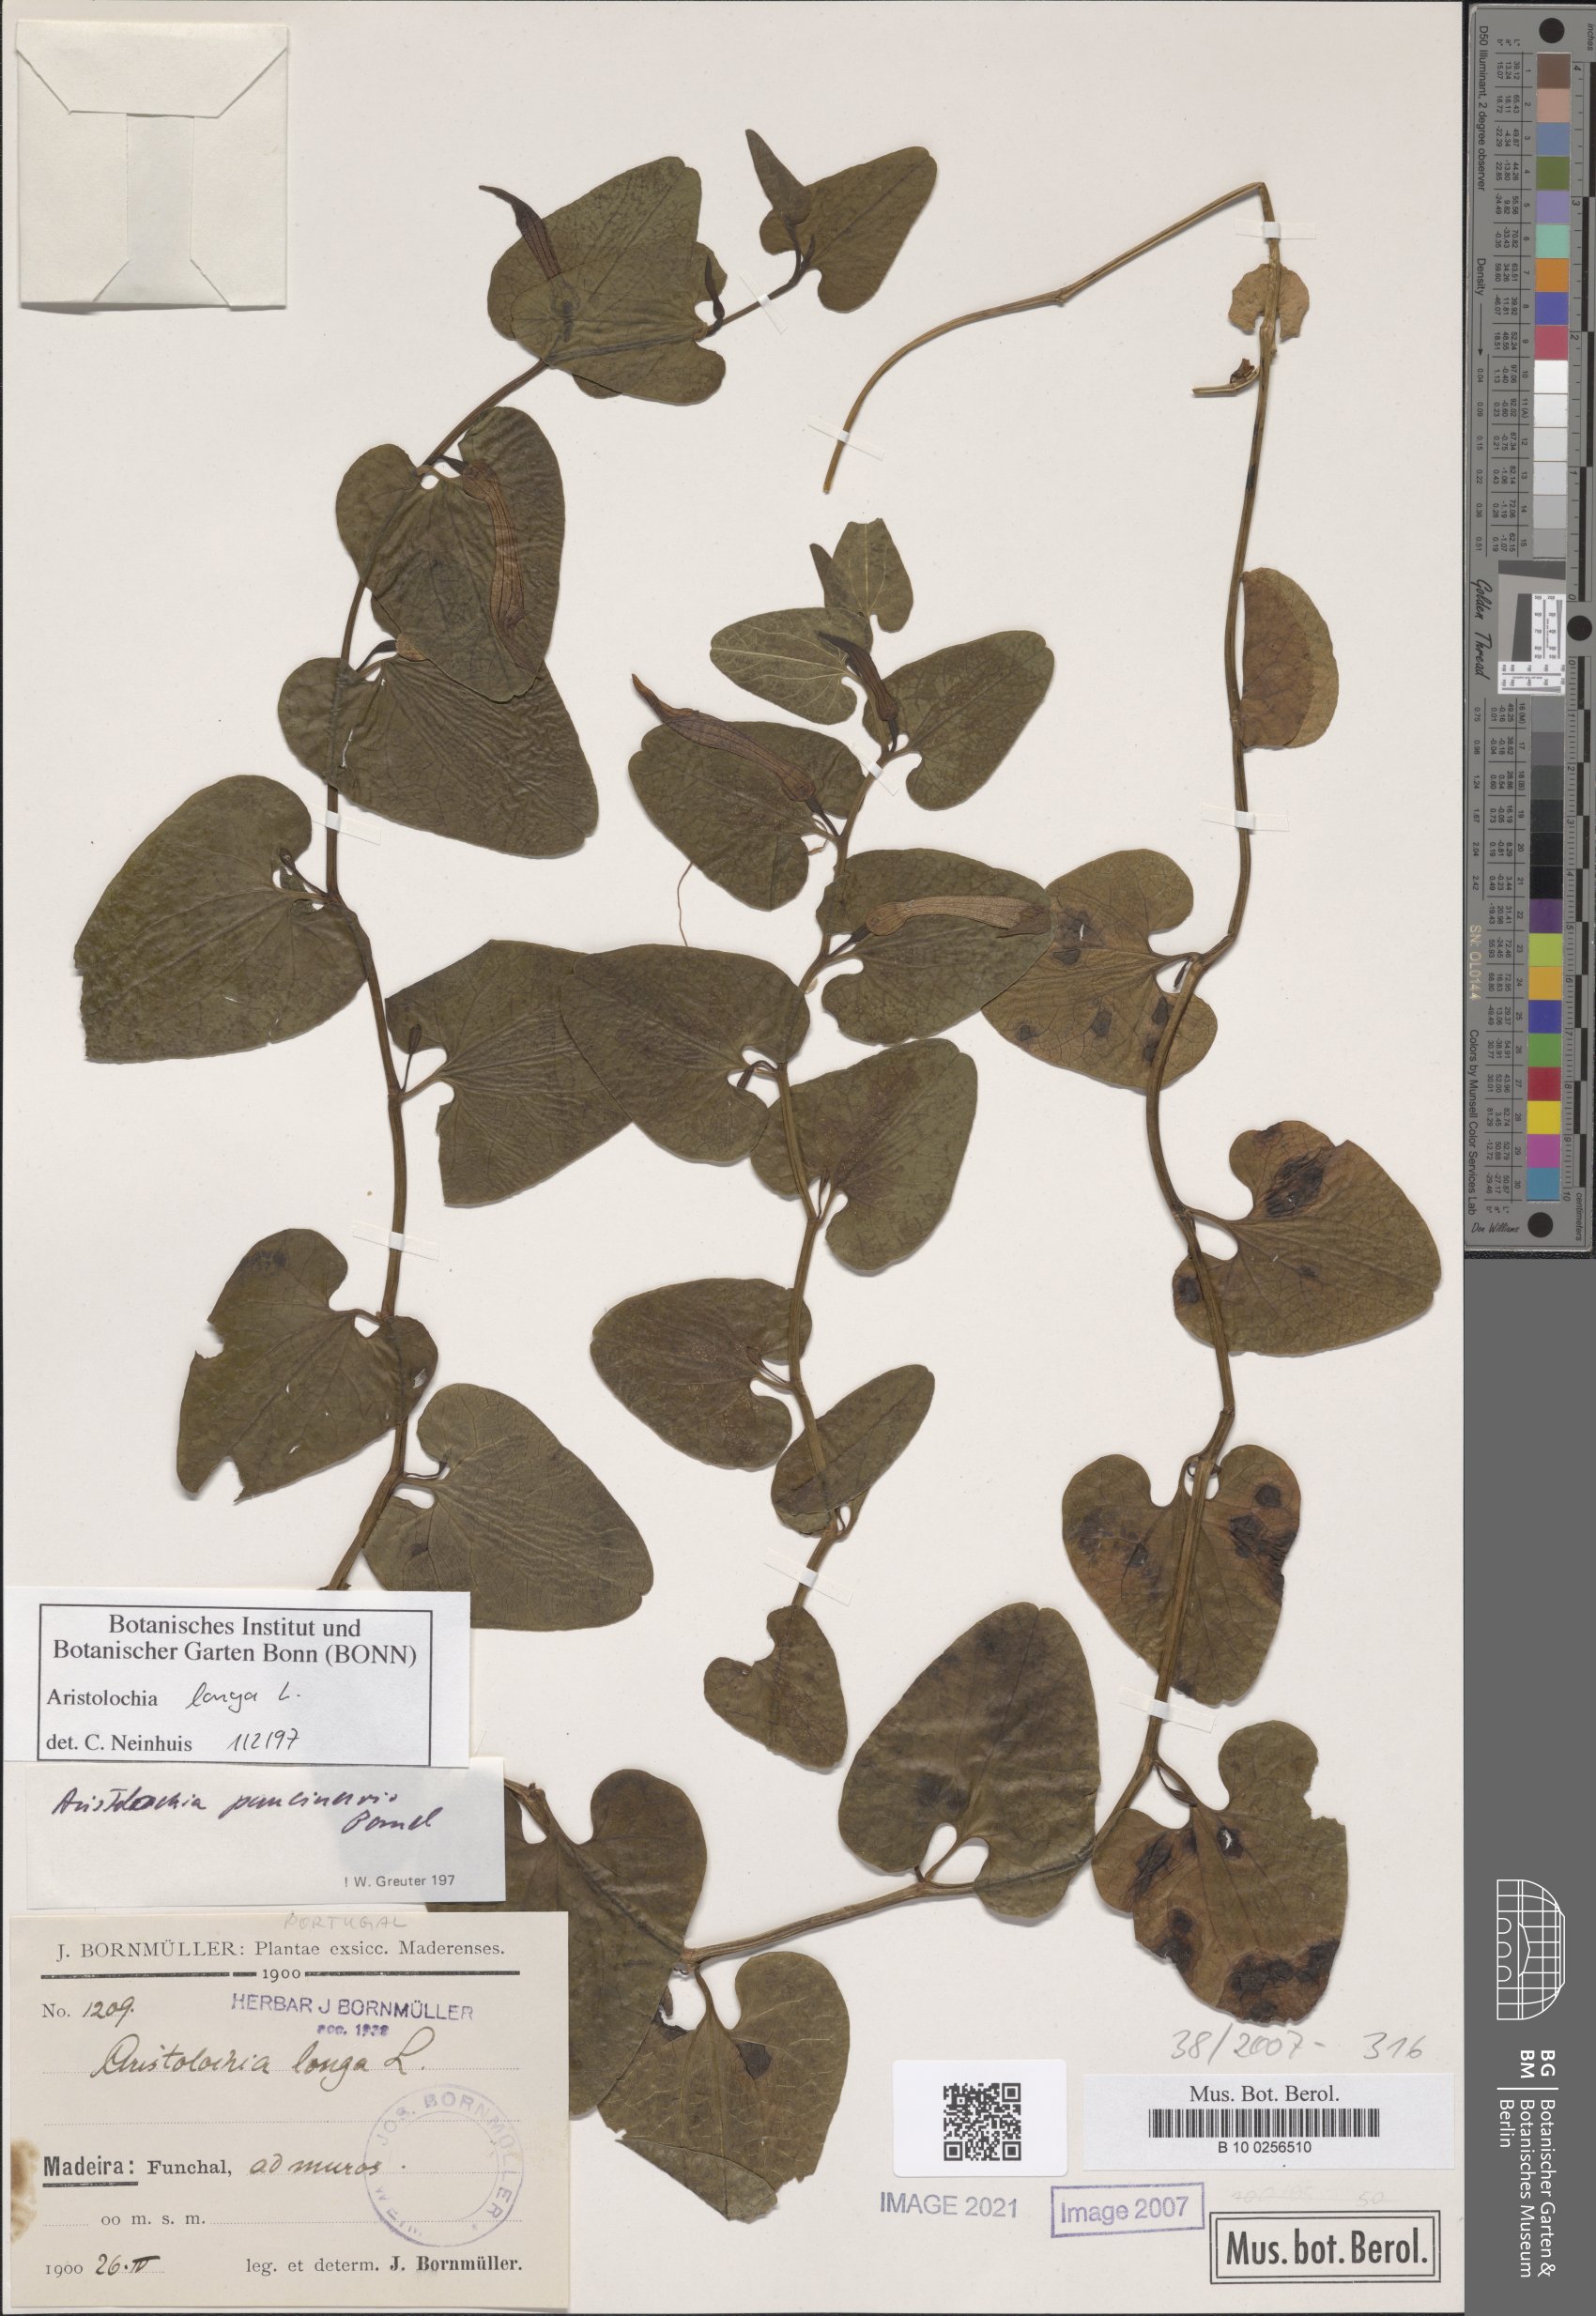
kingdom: Plantae
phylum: Tracheophyta
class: Magnoliopsida
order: Piperales
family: Aristolochiaceae
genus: Aristolochia
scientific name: Aristolochia fontanesii
